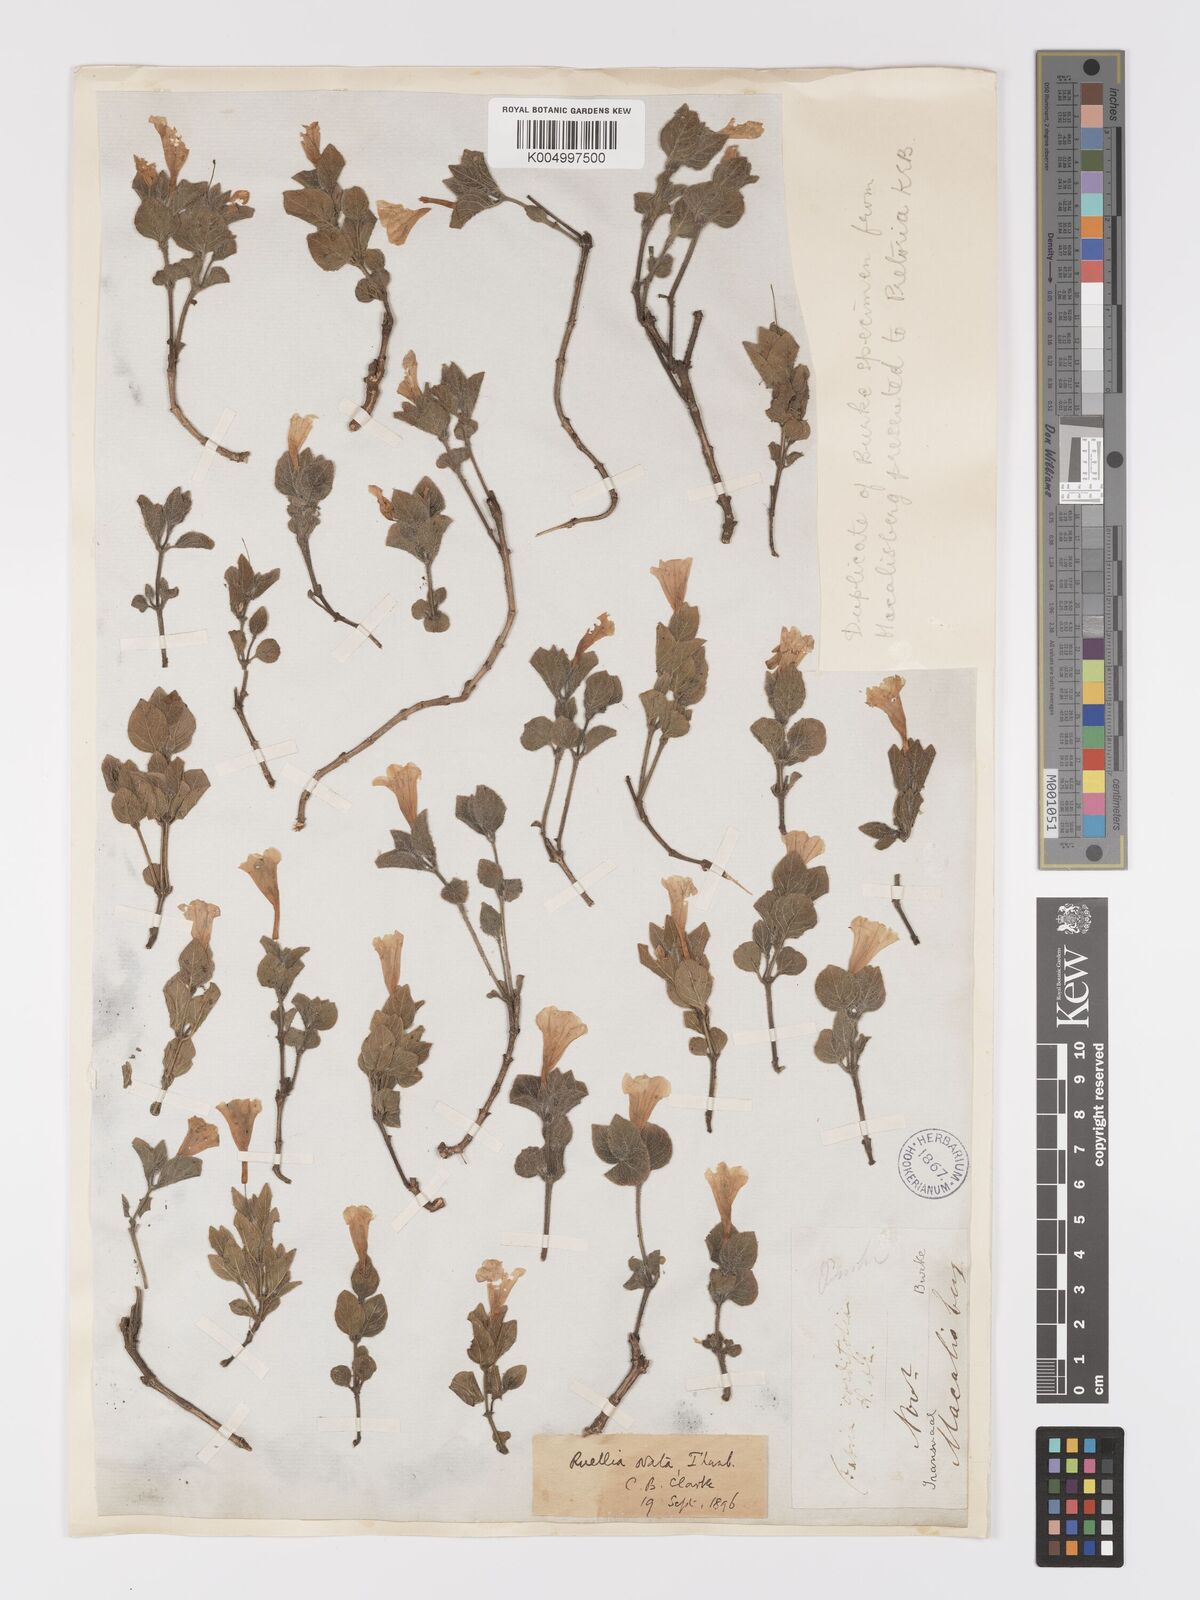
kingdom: Plantae
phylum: Tracheophyta
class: Magnoliopsida
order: Lamiales
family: Acanthaceae
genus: Ruellia
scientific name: Ruellia cordata
